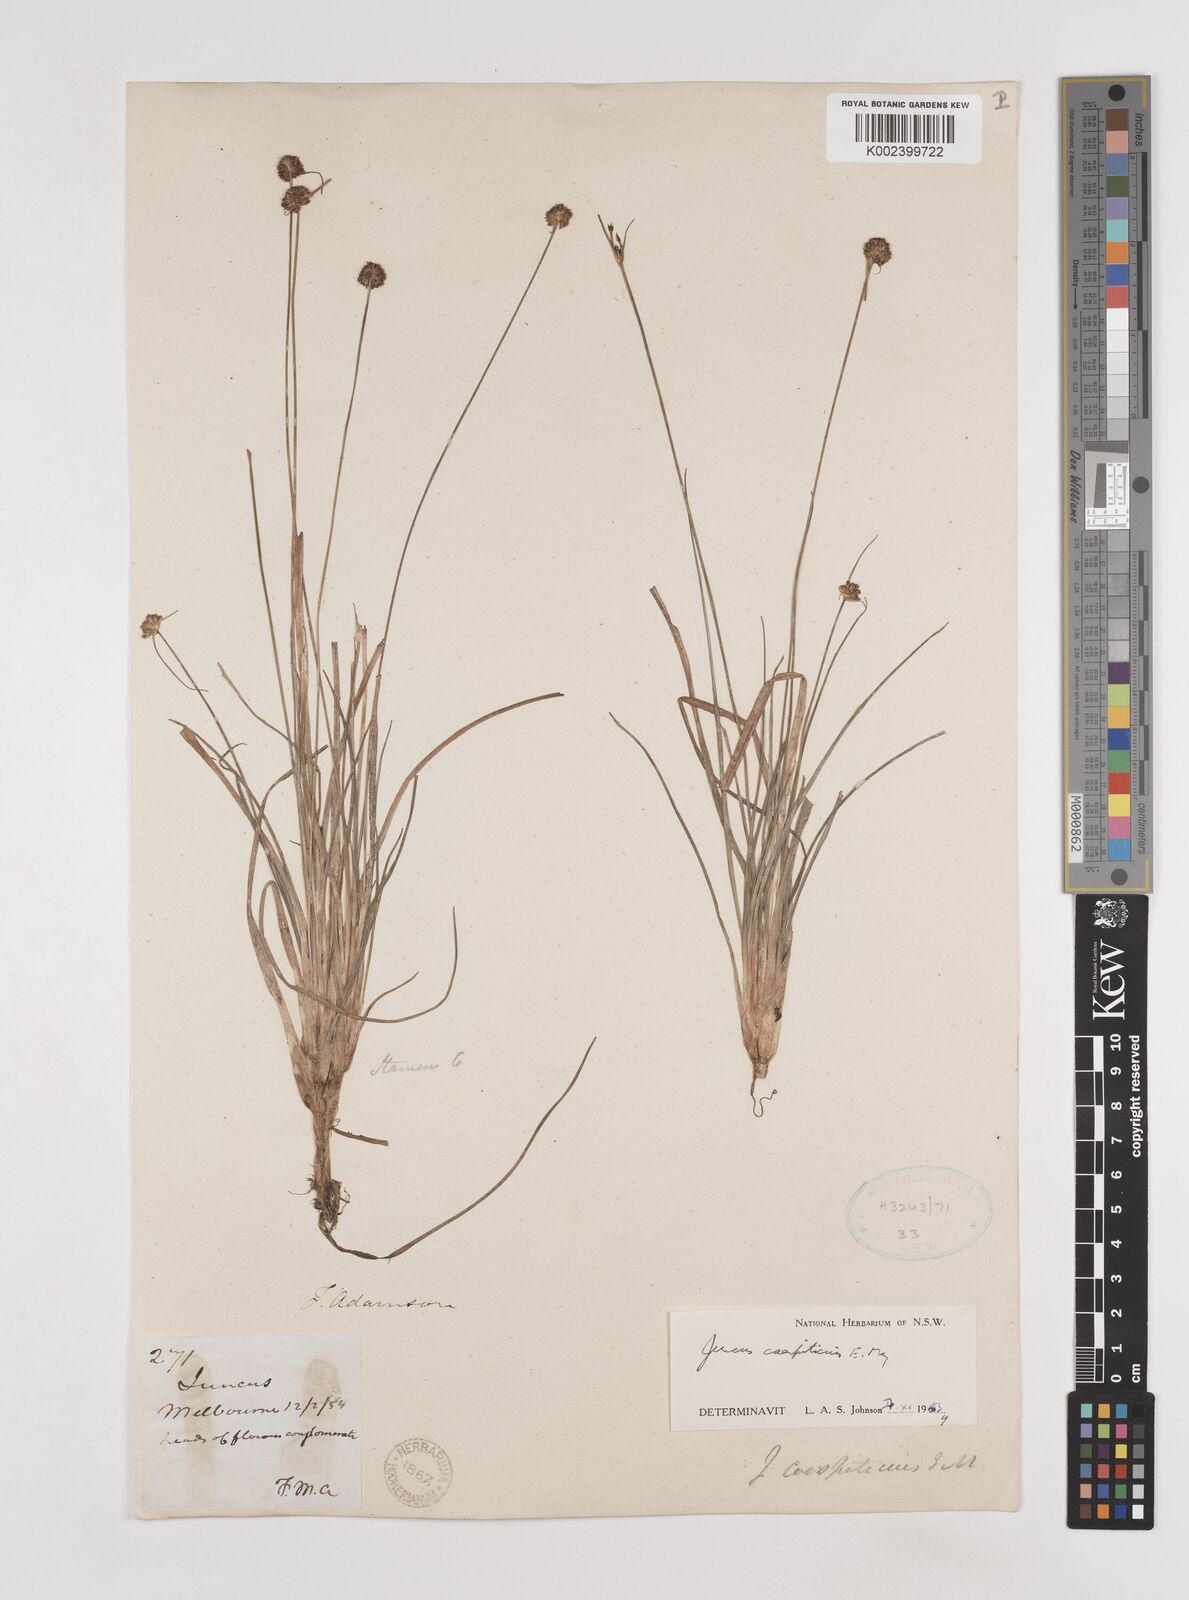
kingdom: Plantae
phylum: Tracheophyta
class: Liliopsida
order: Poales
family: Juncaceae
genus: Juncus
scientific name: Juncus caespiticius
